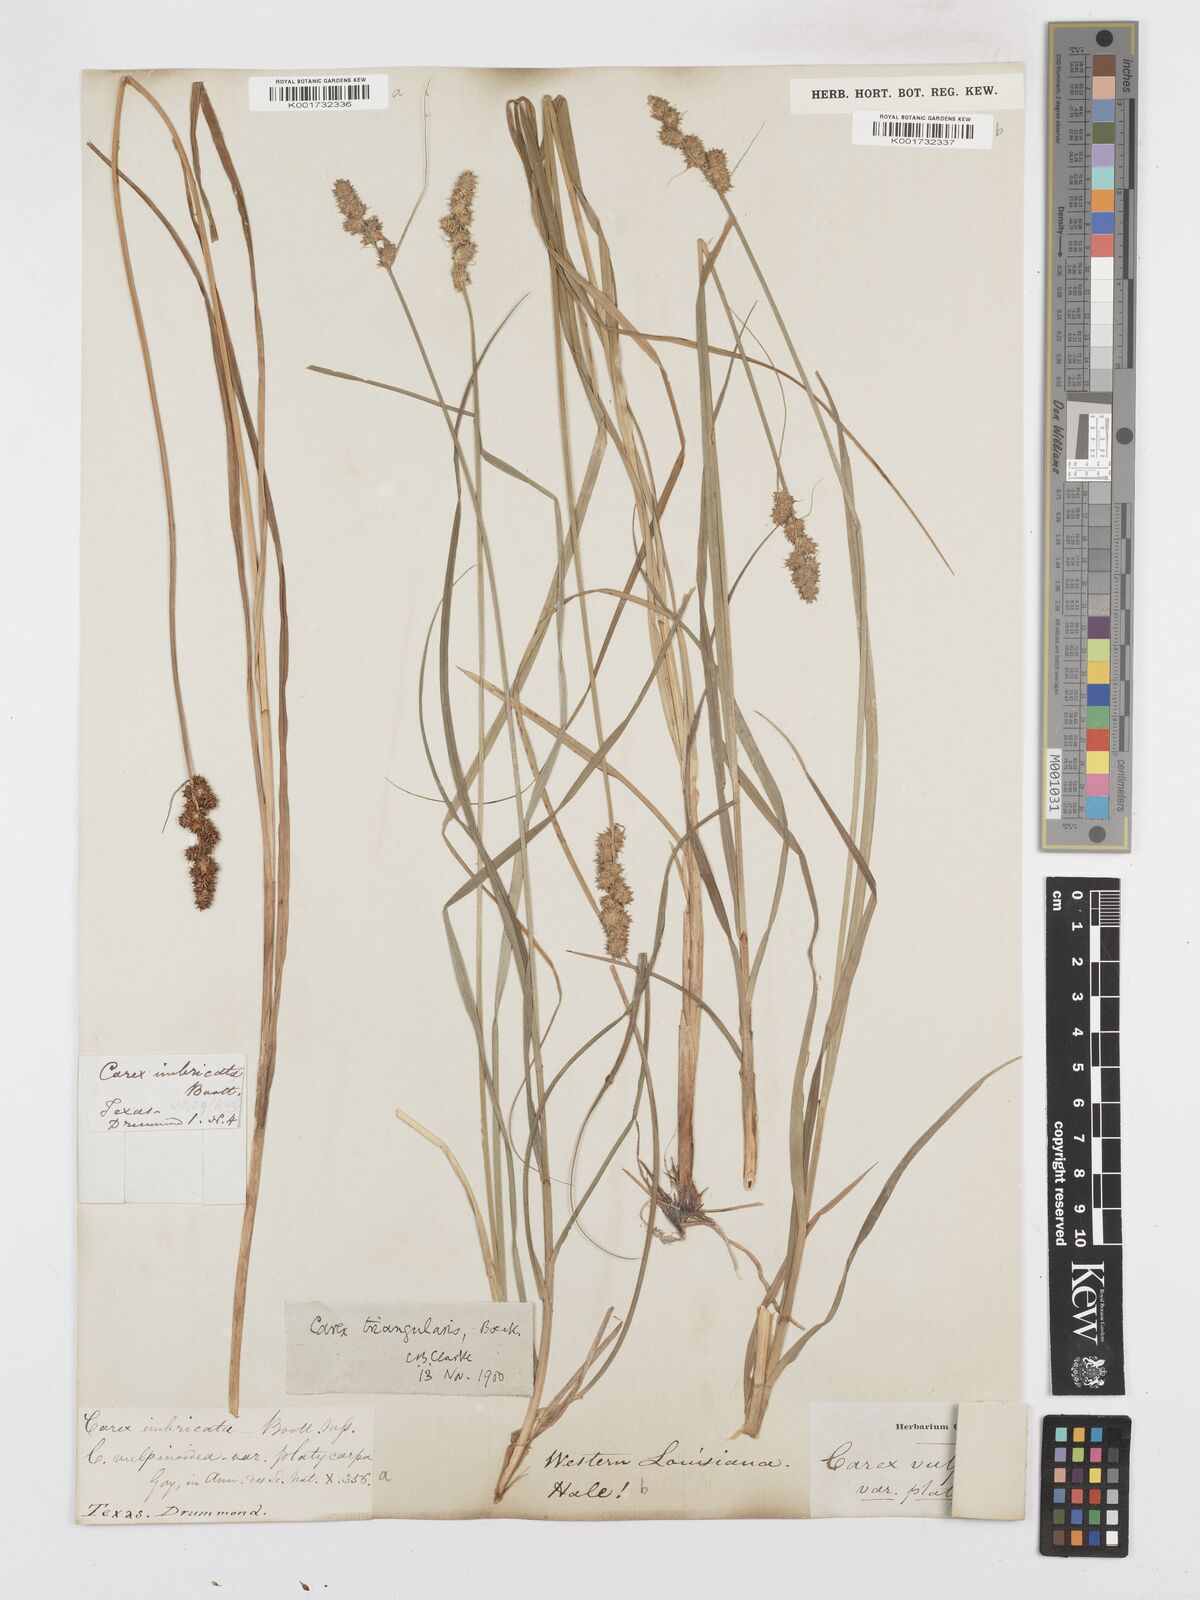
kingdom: Plantae
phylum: Tracheophyta
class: Liliopsida
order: Poales
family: Cyperaceae
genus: Carex
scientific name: Carex triangularis
